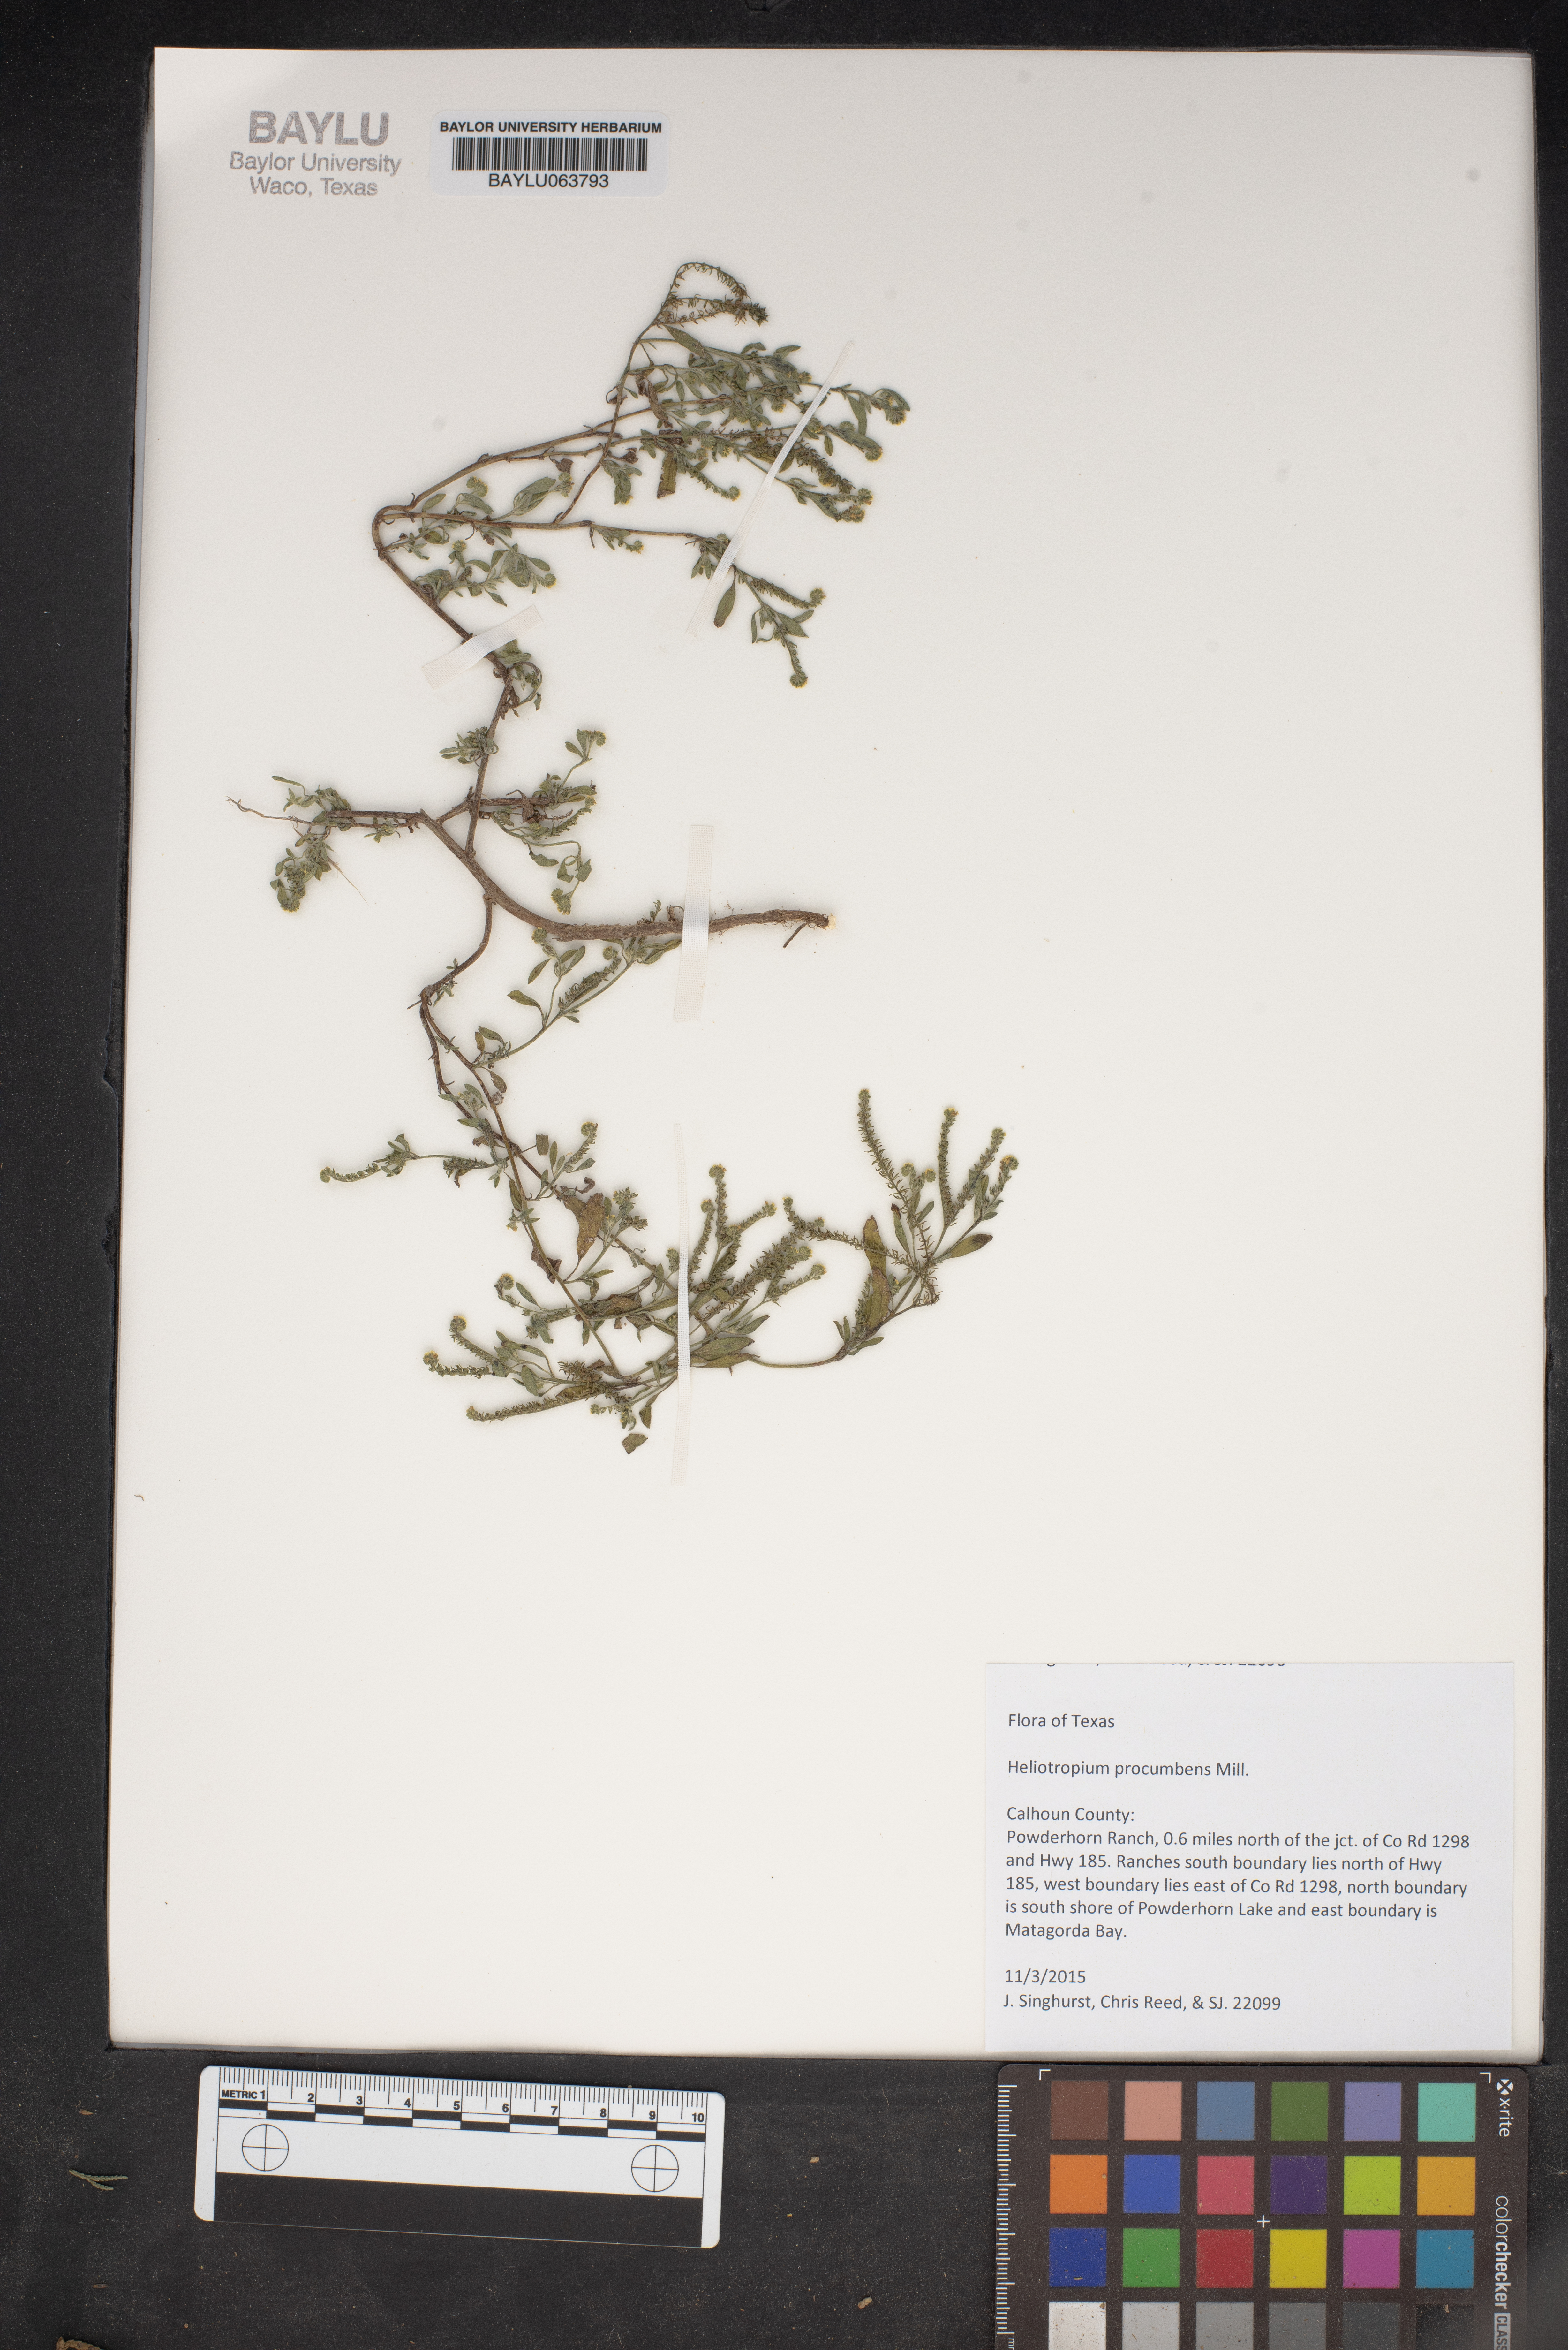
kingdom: Plantae
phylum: Tracheophyta
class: Magnoliopsida
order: Boraginales
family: Heliotropiaceae
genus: Euploca
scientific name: Euploca procumbens
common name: Fourspike heliotrope
